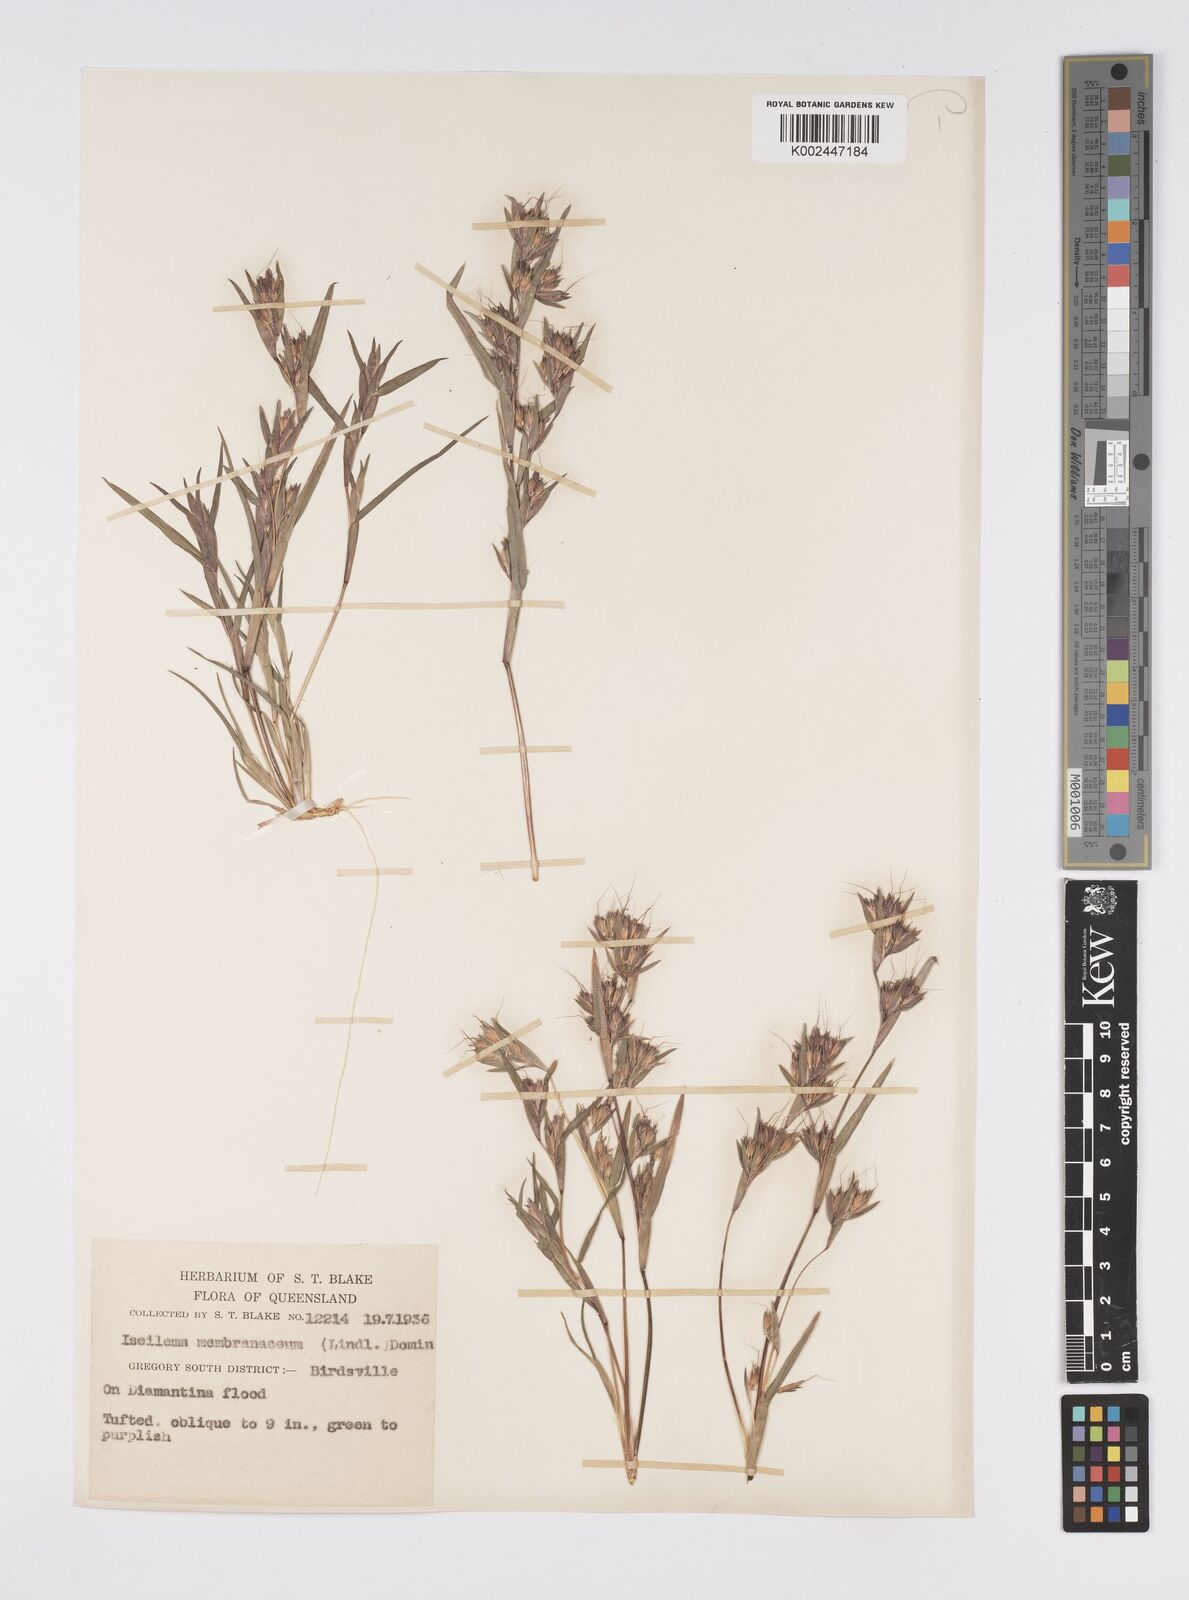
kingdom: Plantae
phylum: Tracheophyta
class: Liliopsida
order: Poales
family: Poaceae
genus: Iseilema
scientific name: Iseilema membranaceum
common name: Small flinders grass
